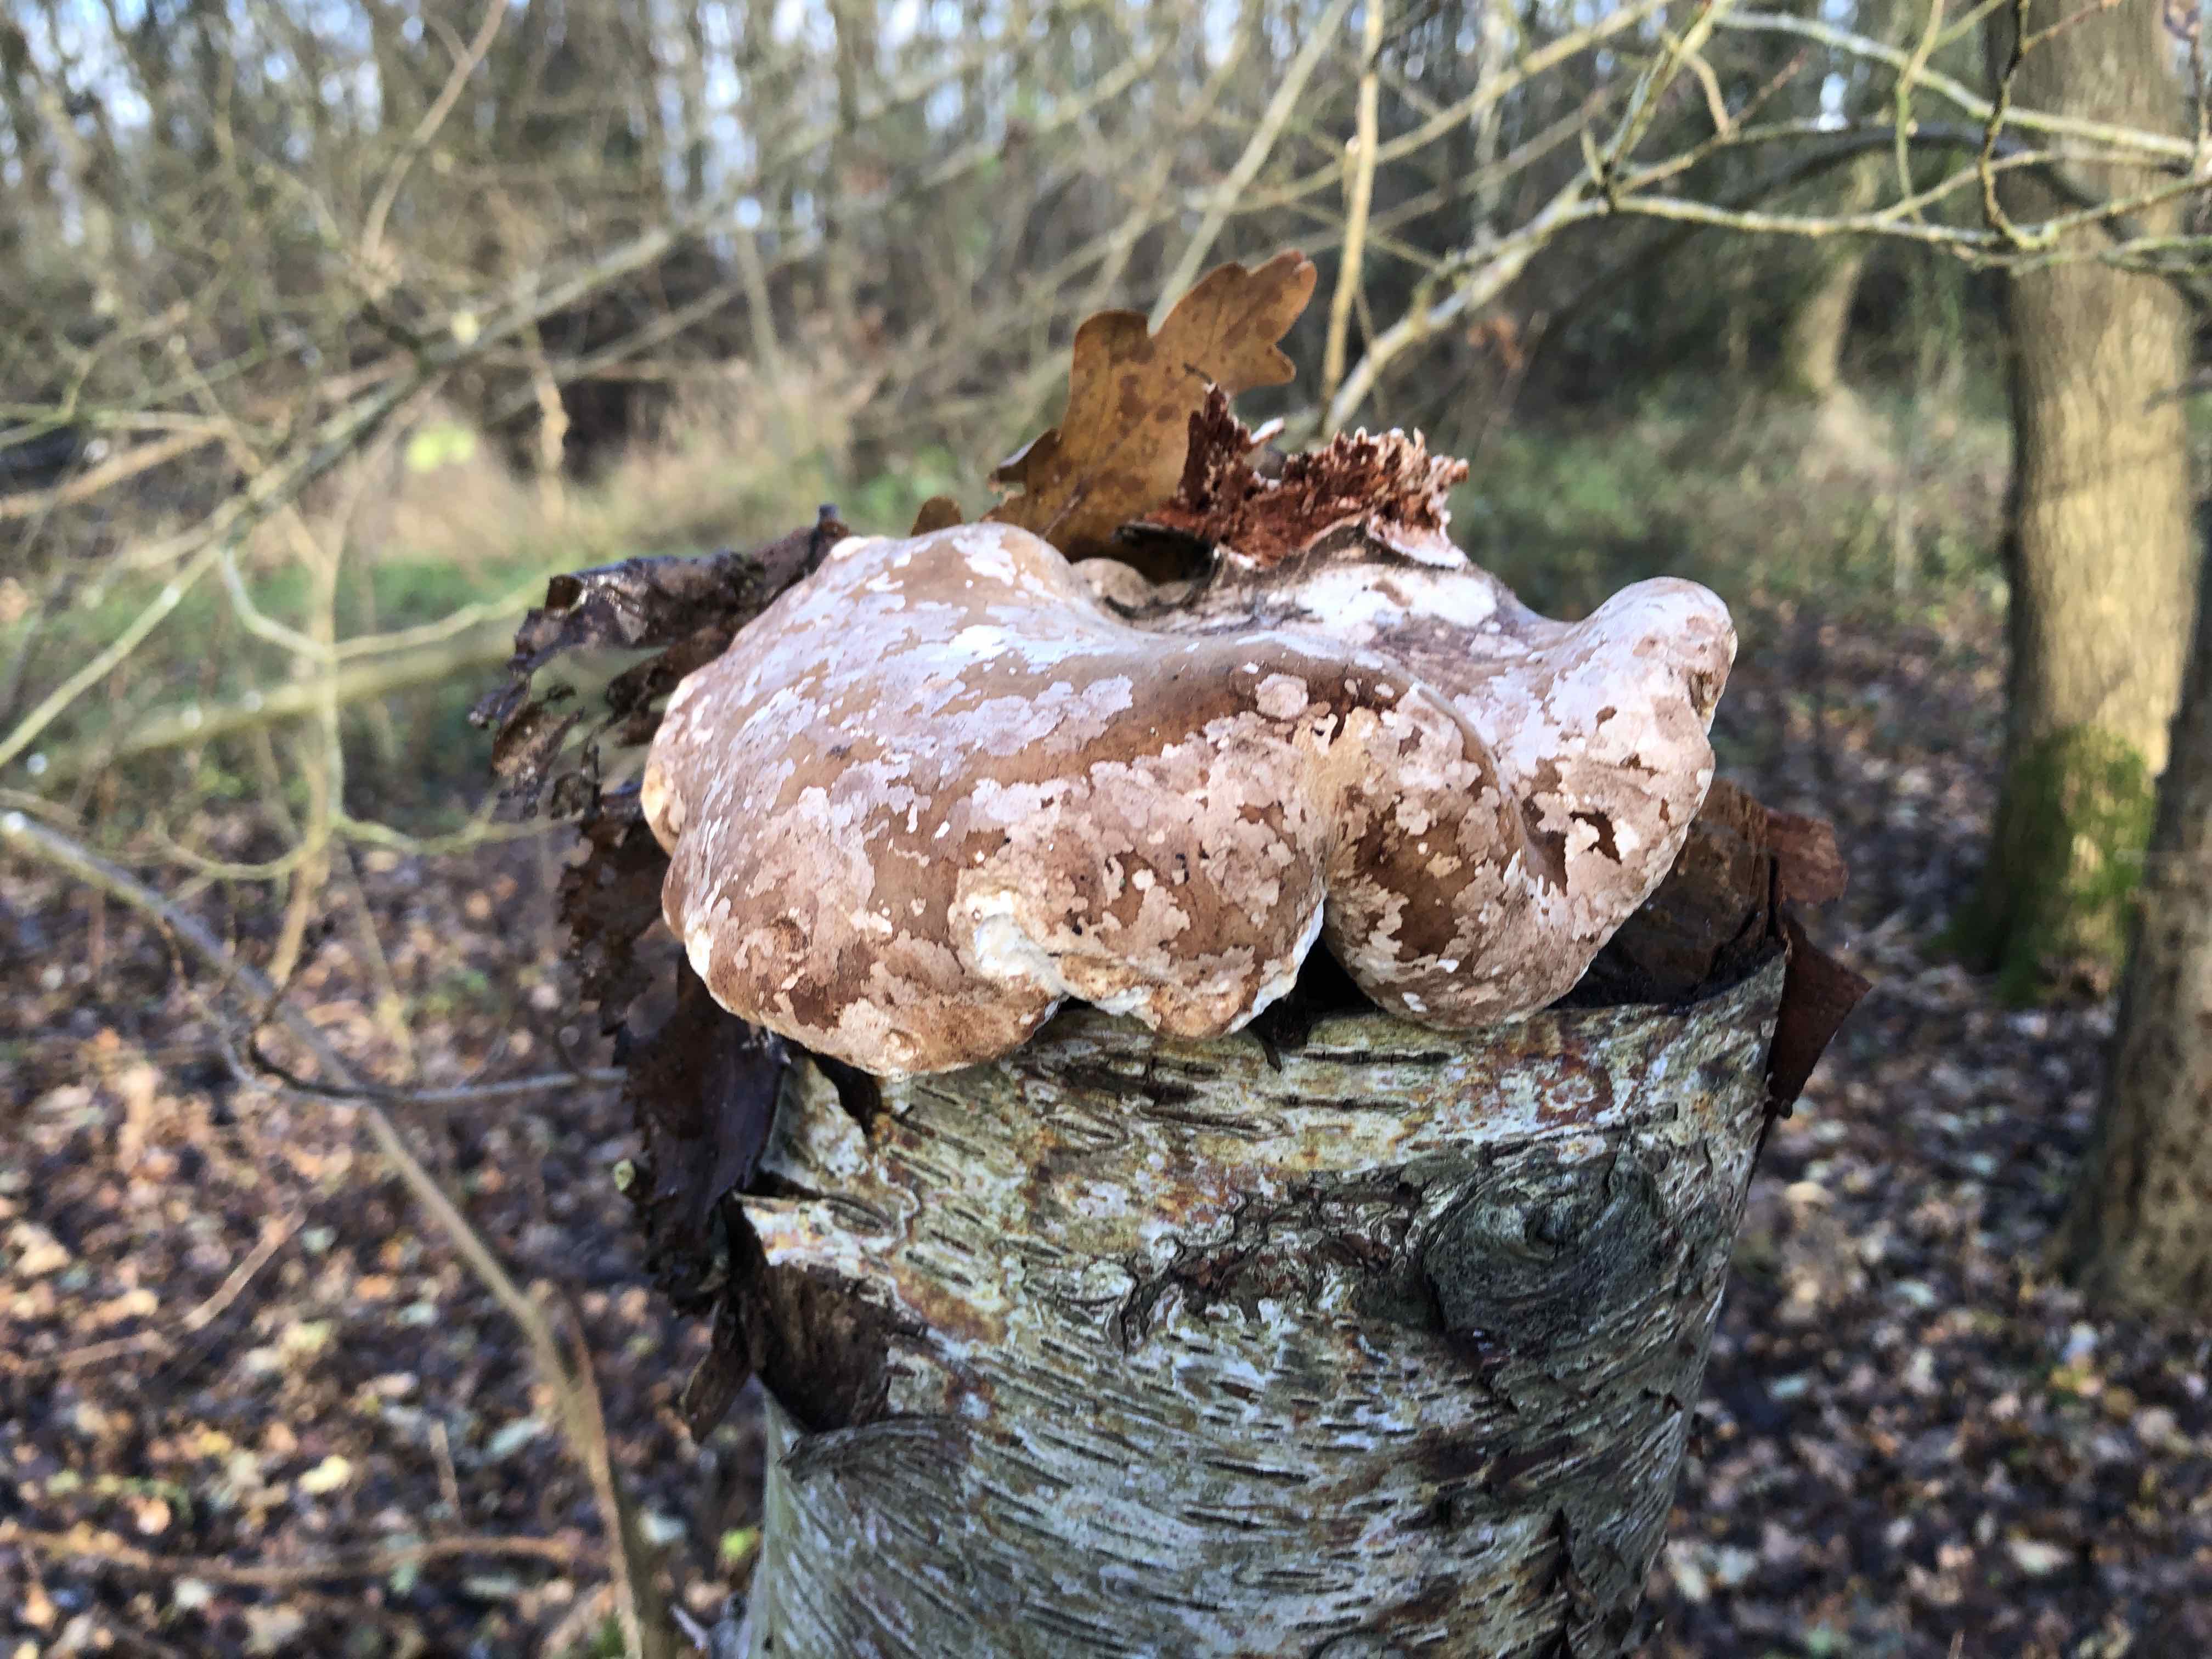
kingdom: Fungi
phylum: Basidiomycota
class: Agaricomycetes
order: Polyporales
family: Fomitopsidaceae
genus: Fomitopsis
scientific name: Fomitopsis betulina
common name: birkeporesvamp
